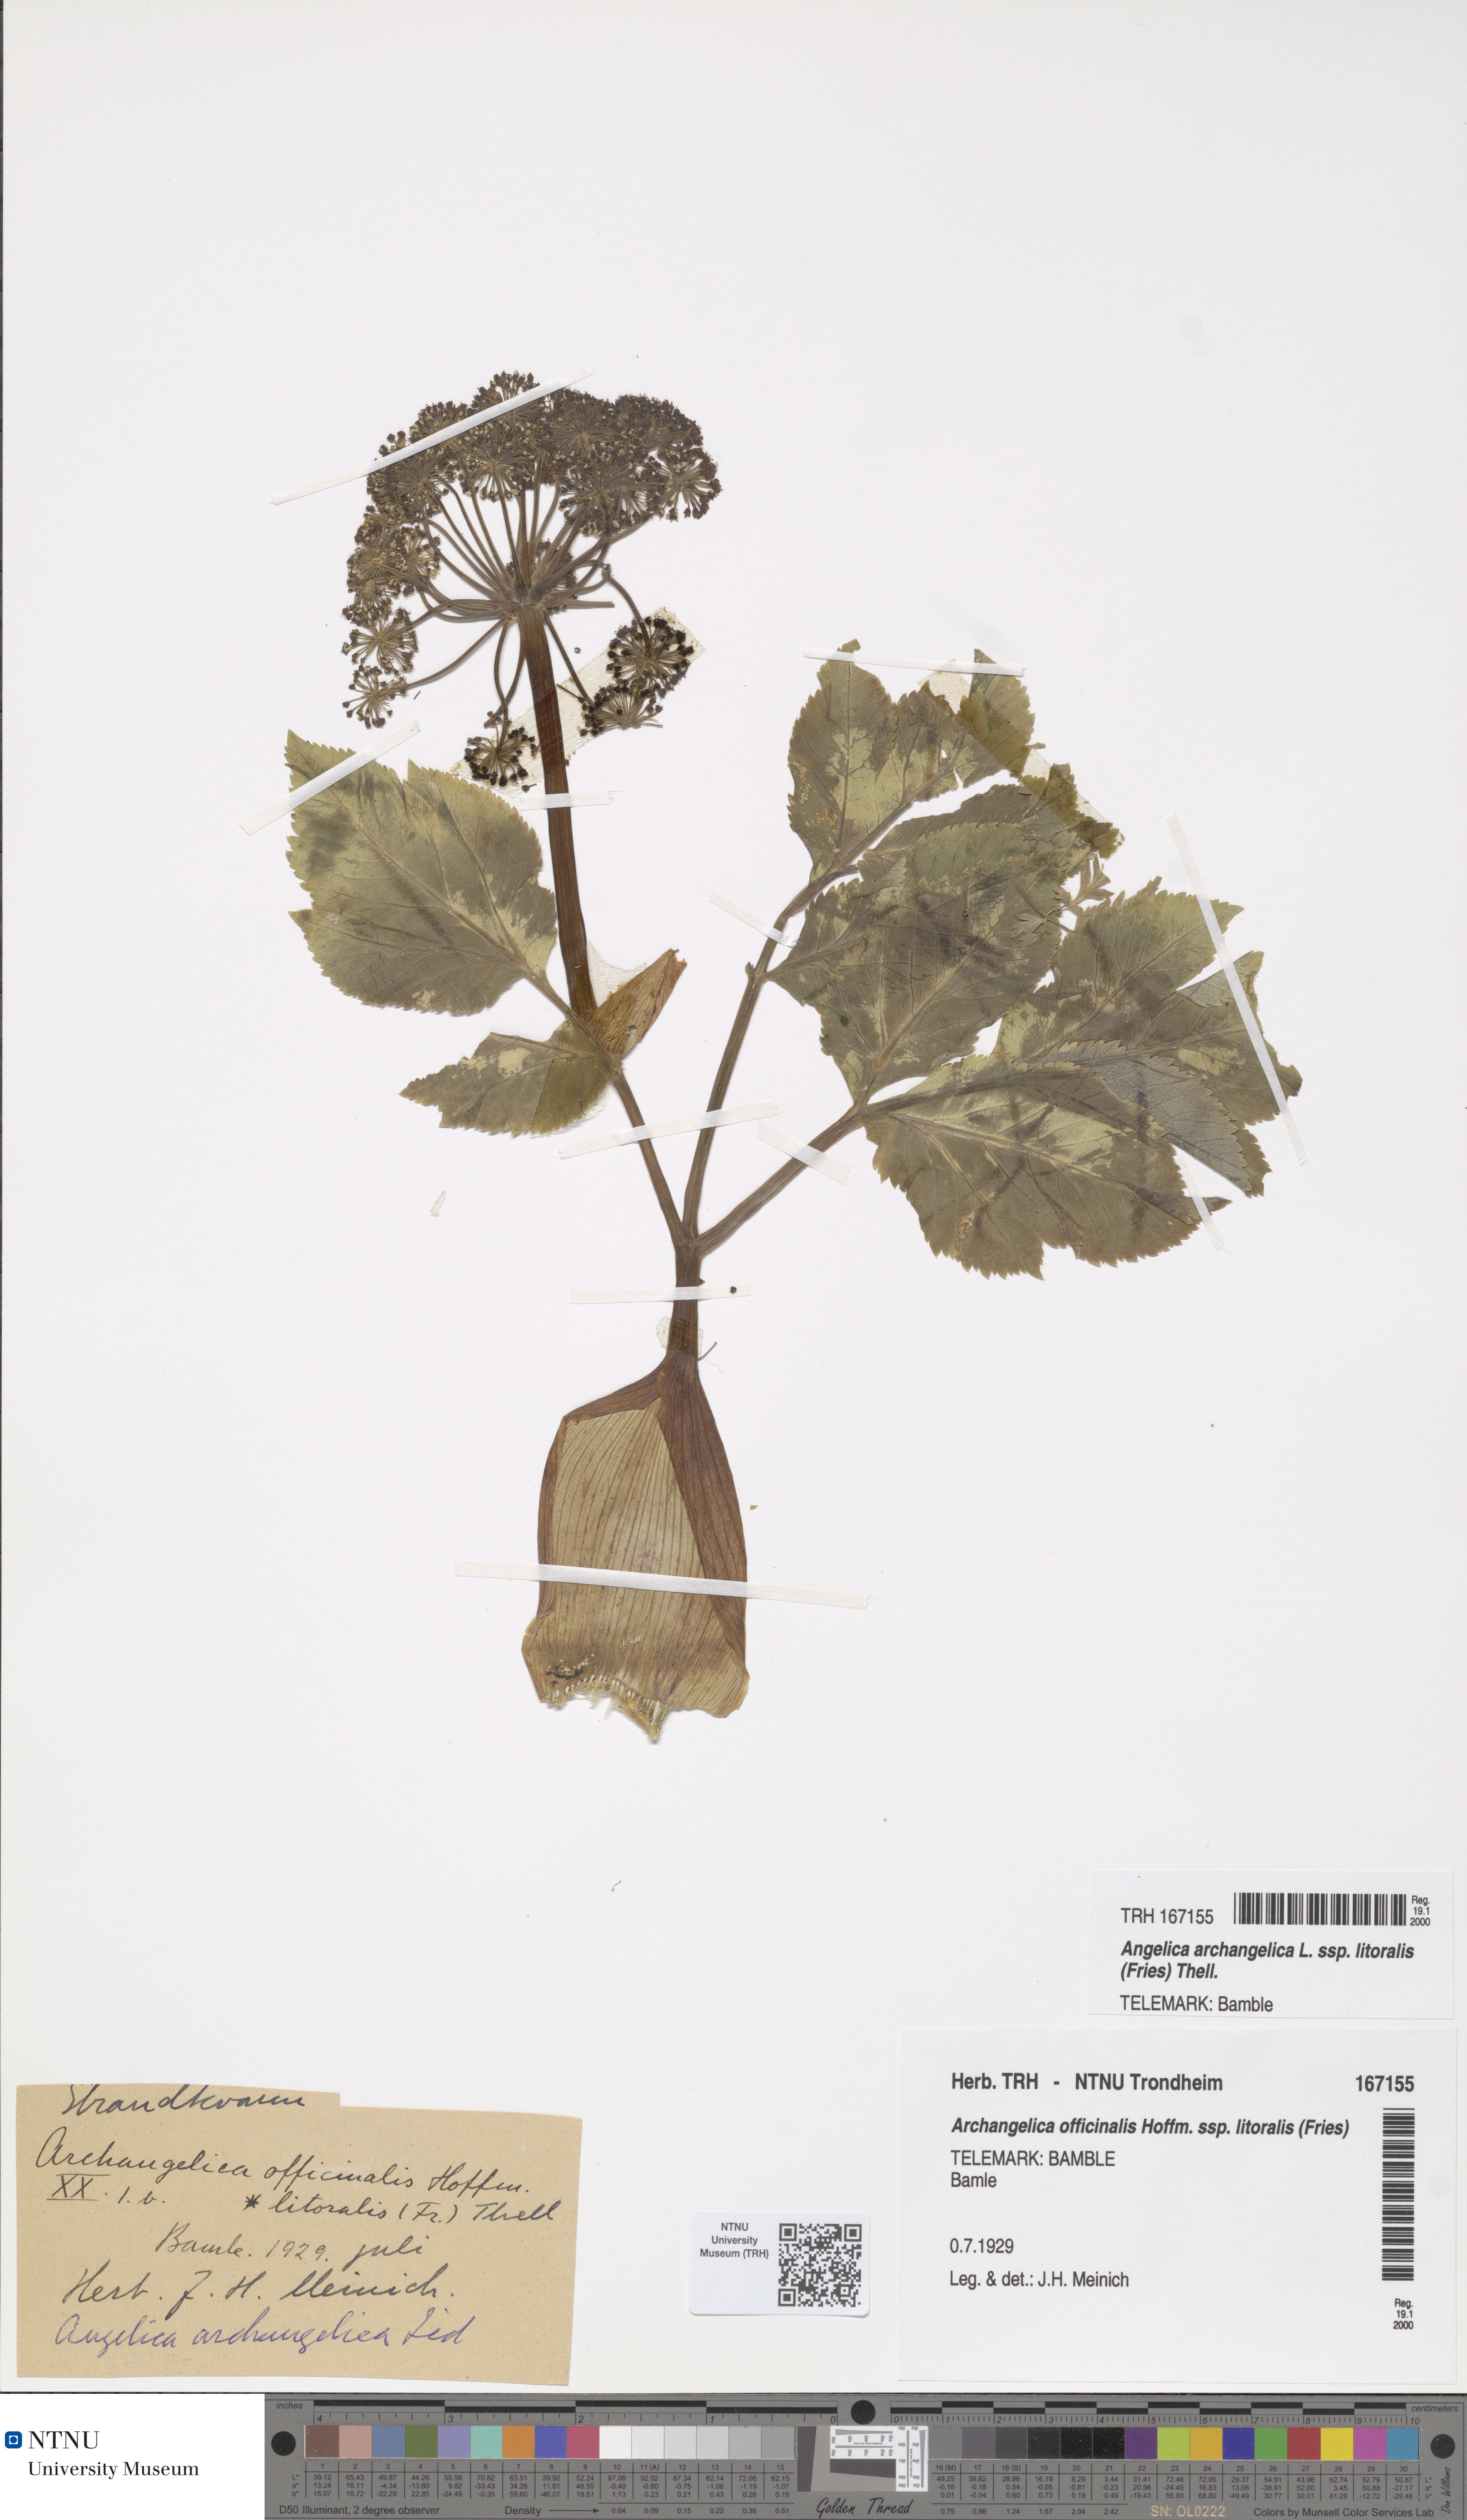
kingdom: Plantae
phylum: Tracheophyta
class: Magnoliopsida
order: Apiales
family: Apiaceae
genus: Angelica
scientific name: Angelica archangelica
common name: Garden angelica
